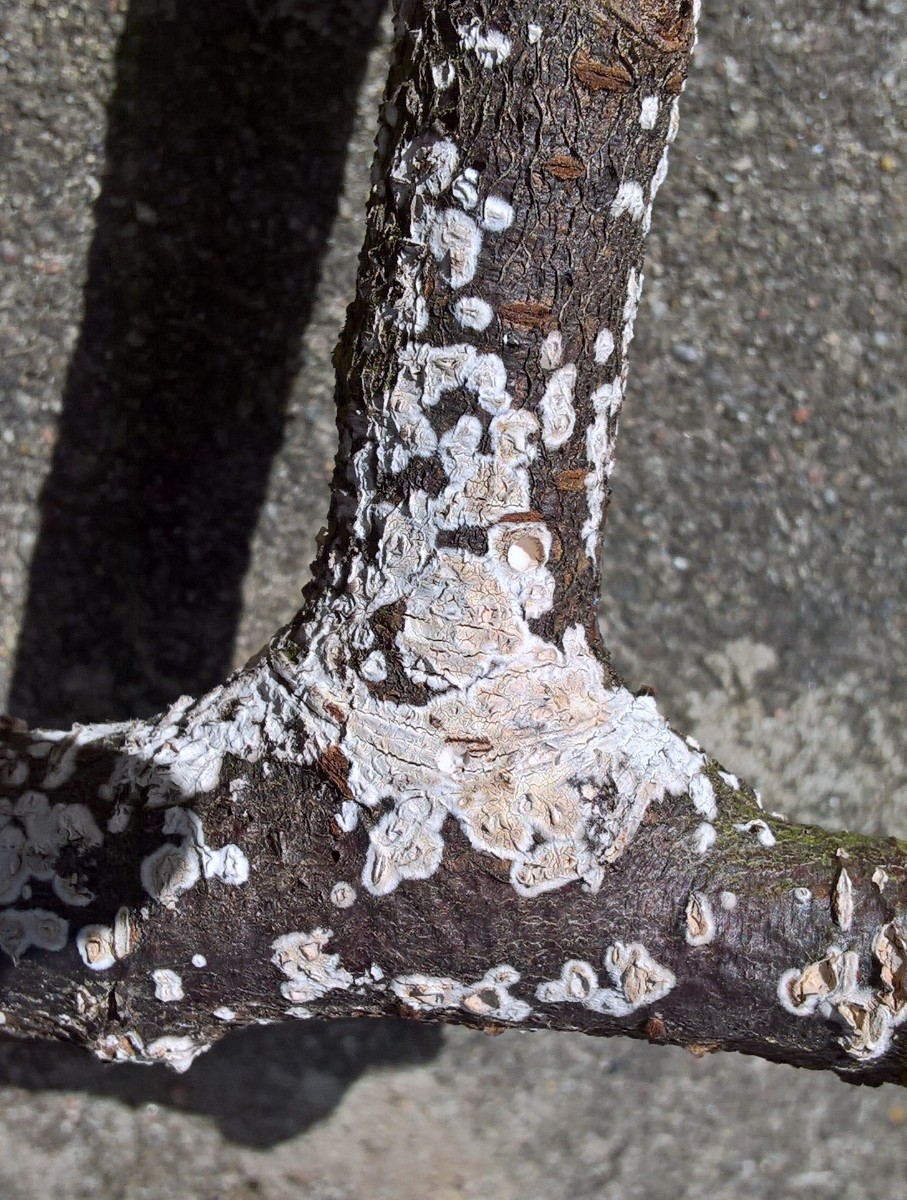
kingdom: Fungi
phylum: Basidiomycota
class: Agaricomycetes
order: Agaricales
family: Physalacriaceae
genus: Cylindrobasidium
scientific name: Cylindrobasidium evolvens
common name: sprækkehinde
